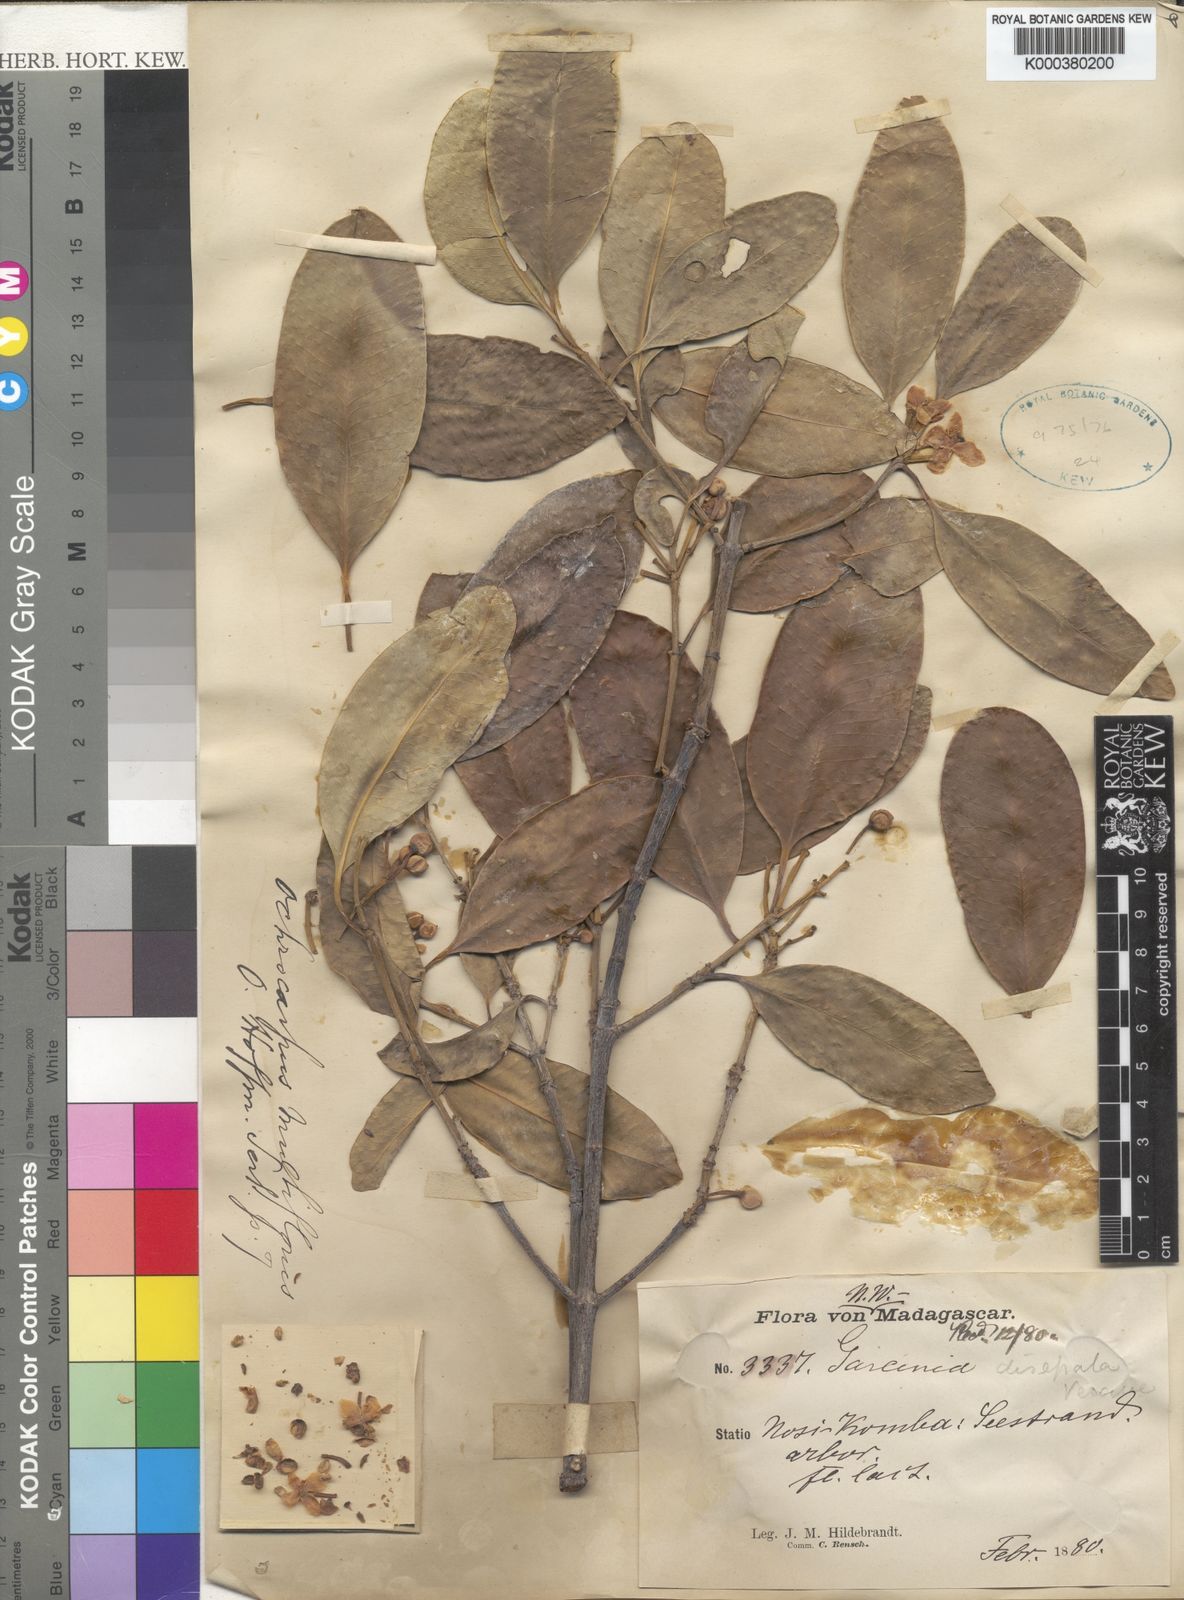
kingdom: Plantae
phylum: Tracheophyta
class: Magnoliopsida
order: Malpighiales
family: Clusiaceae
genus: Garcinia
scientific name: Garcinia evonymoides
